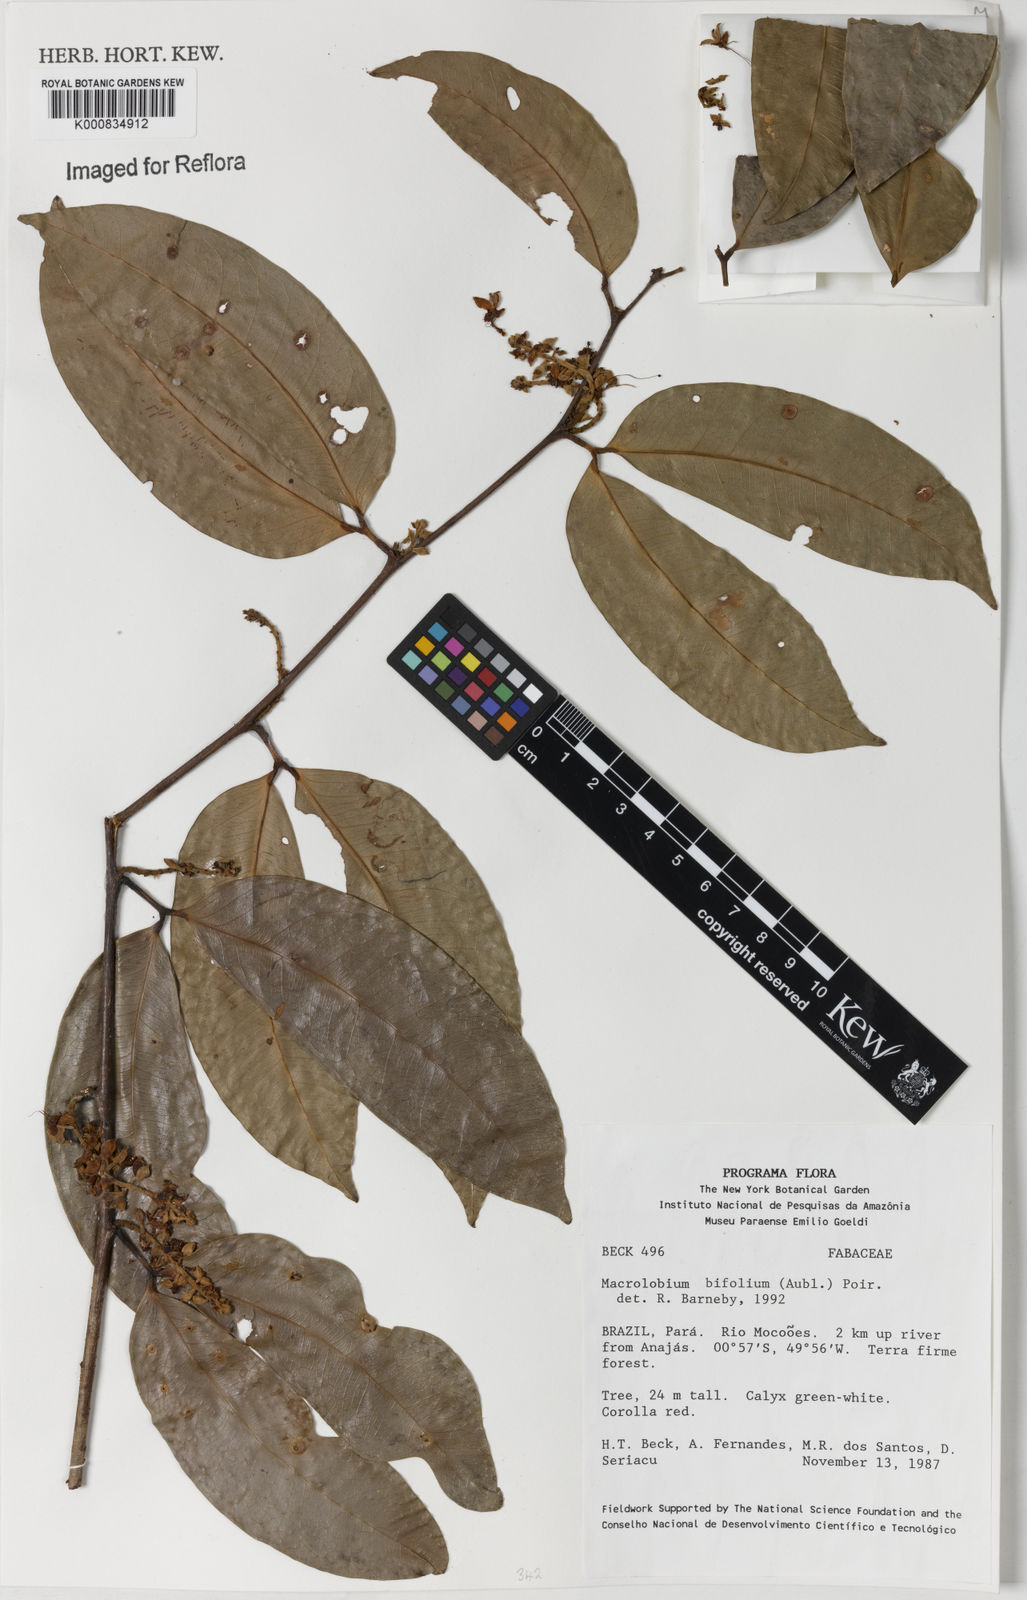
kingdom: Plantae
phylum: Tracheophyta
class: Magnoliopsida
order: Fabales
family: Fabaceae
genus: Macrolobium
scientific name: Macrolobium bifolium
